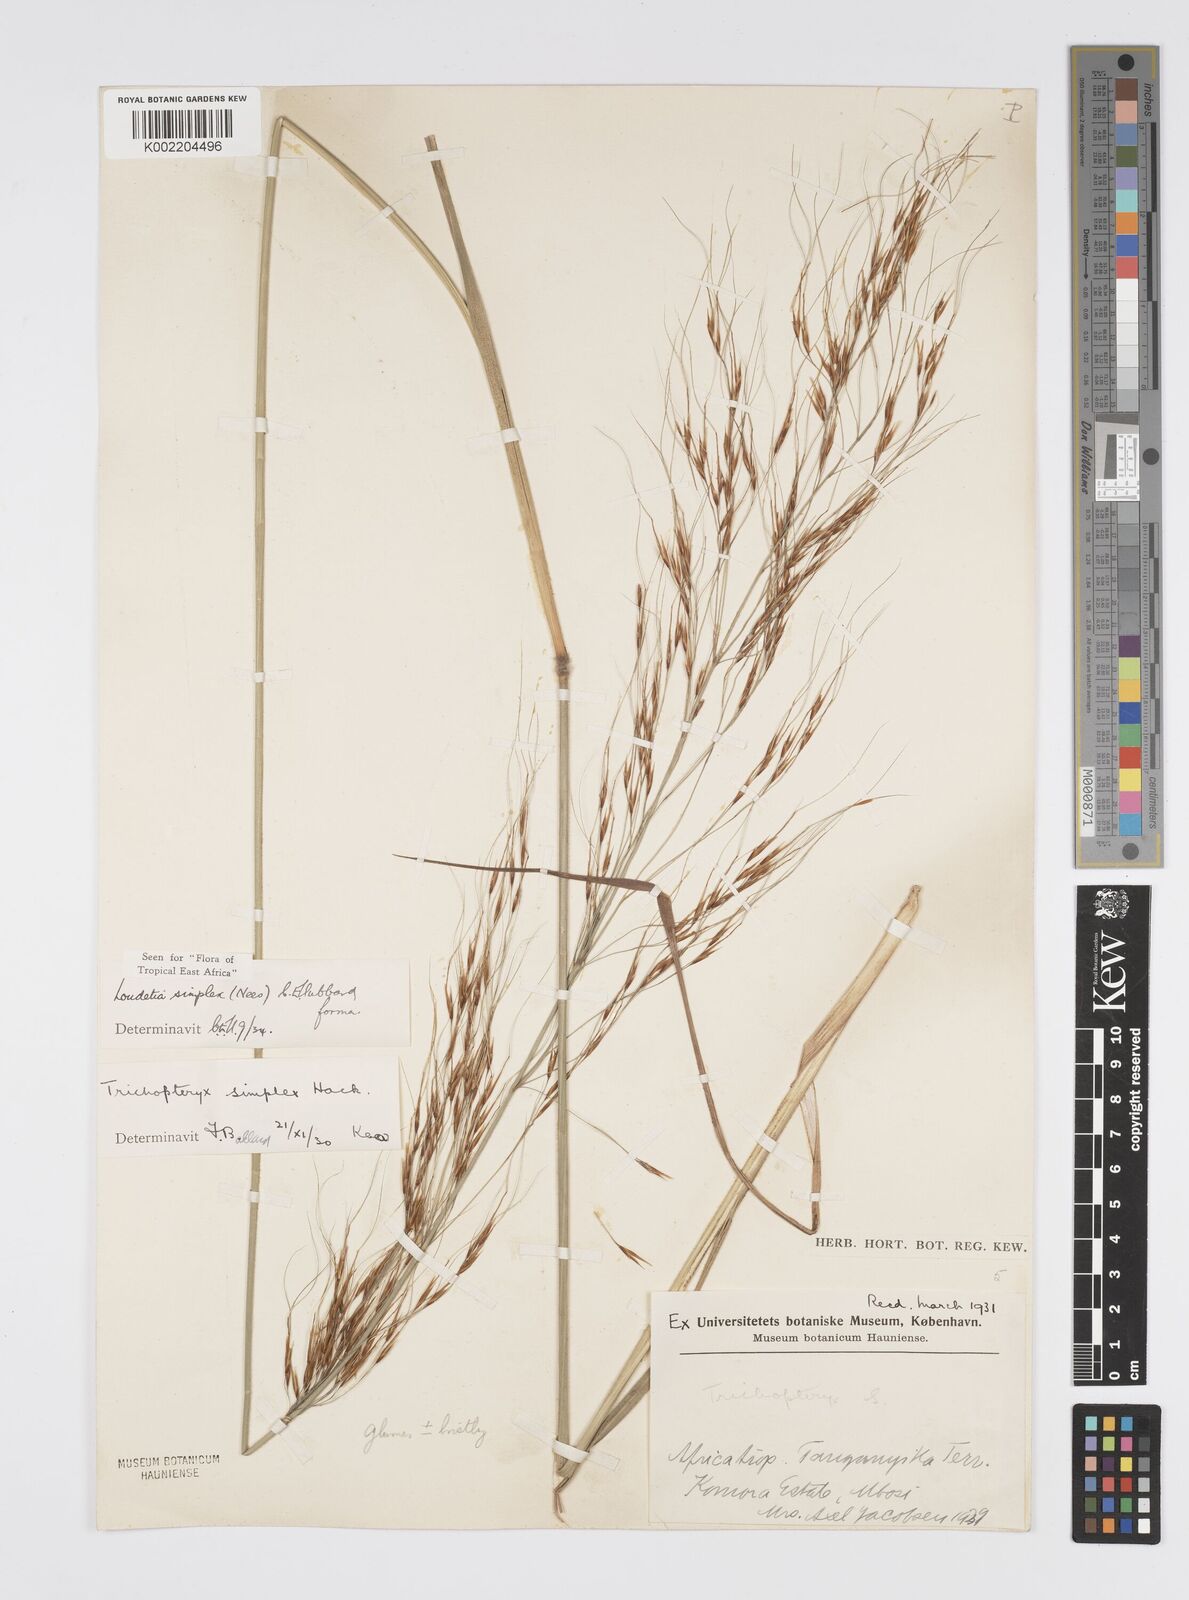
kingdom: Plantae
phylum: Tracheophyta
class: Liliopsida
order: Poales
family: Poaceae
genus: Loudetia
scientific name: Loudetia simplex
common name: Common russet grass
